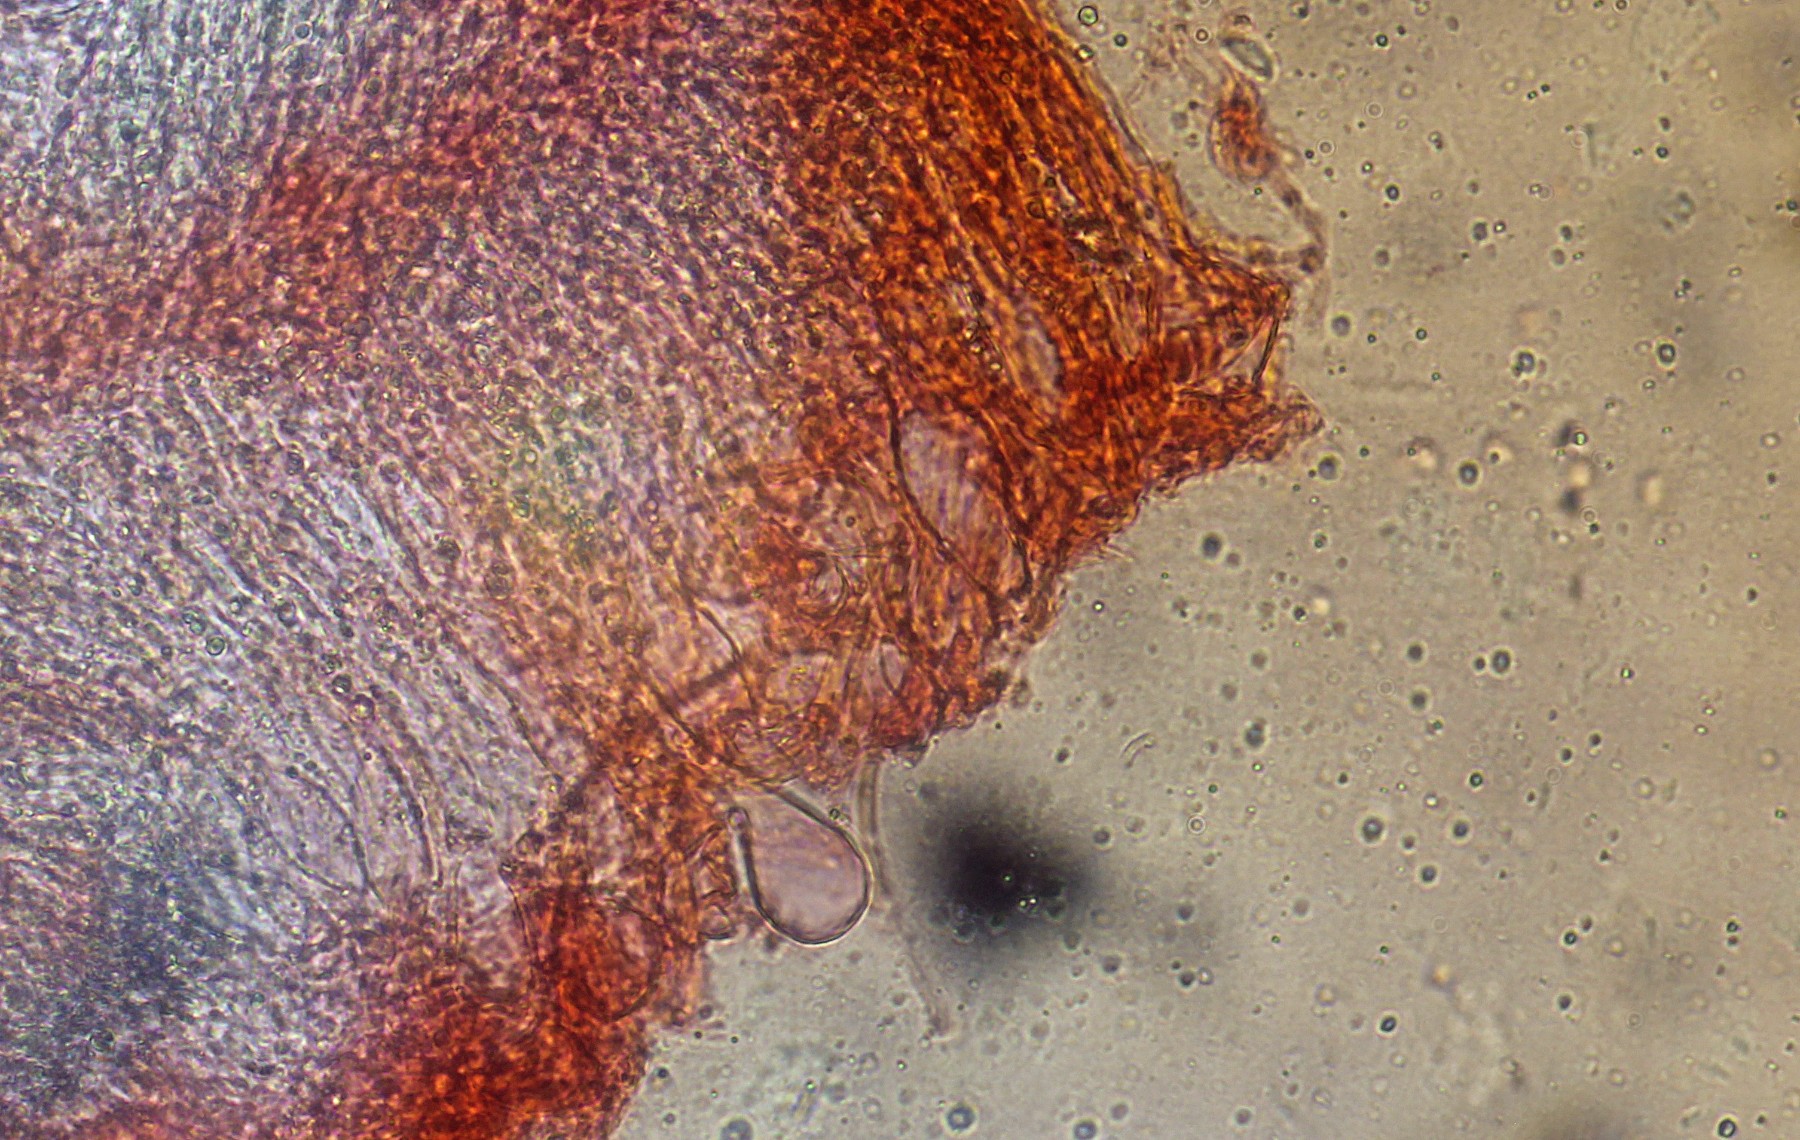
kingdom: Fungi
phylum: Basidiomycota
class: Agaricomycetes
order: Russulales
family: Peniophoraceae
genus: Gloiothele
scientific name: Gloiothele citrina
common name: citronskorpe
